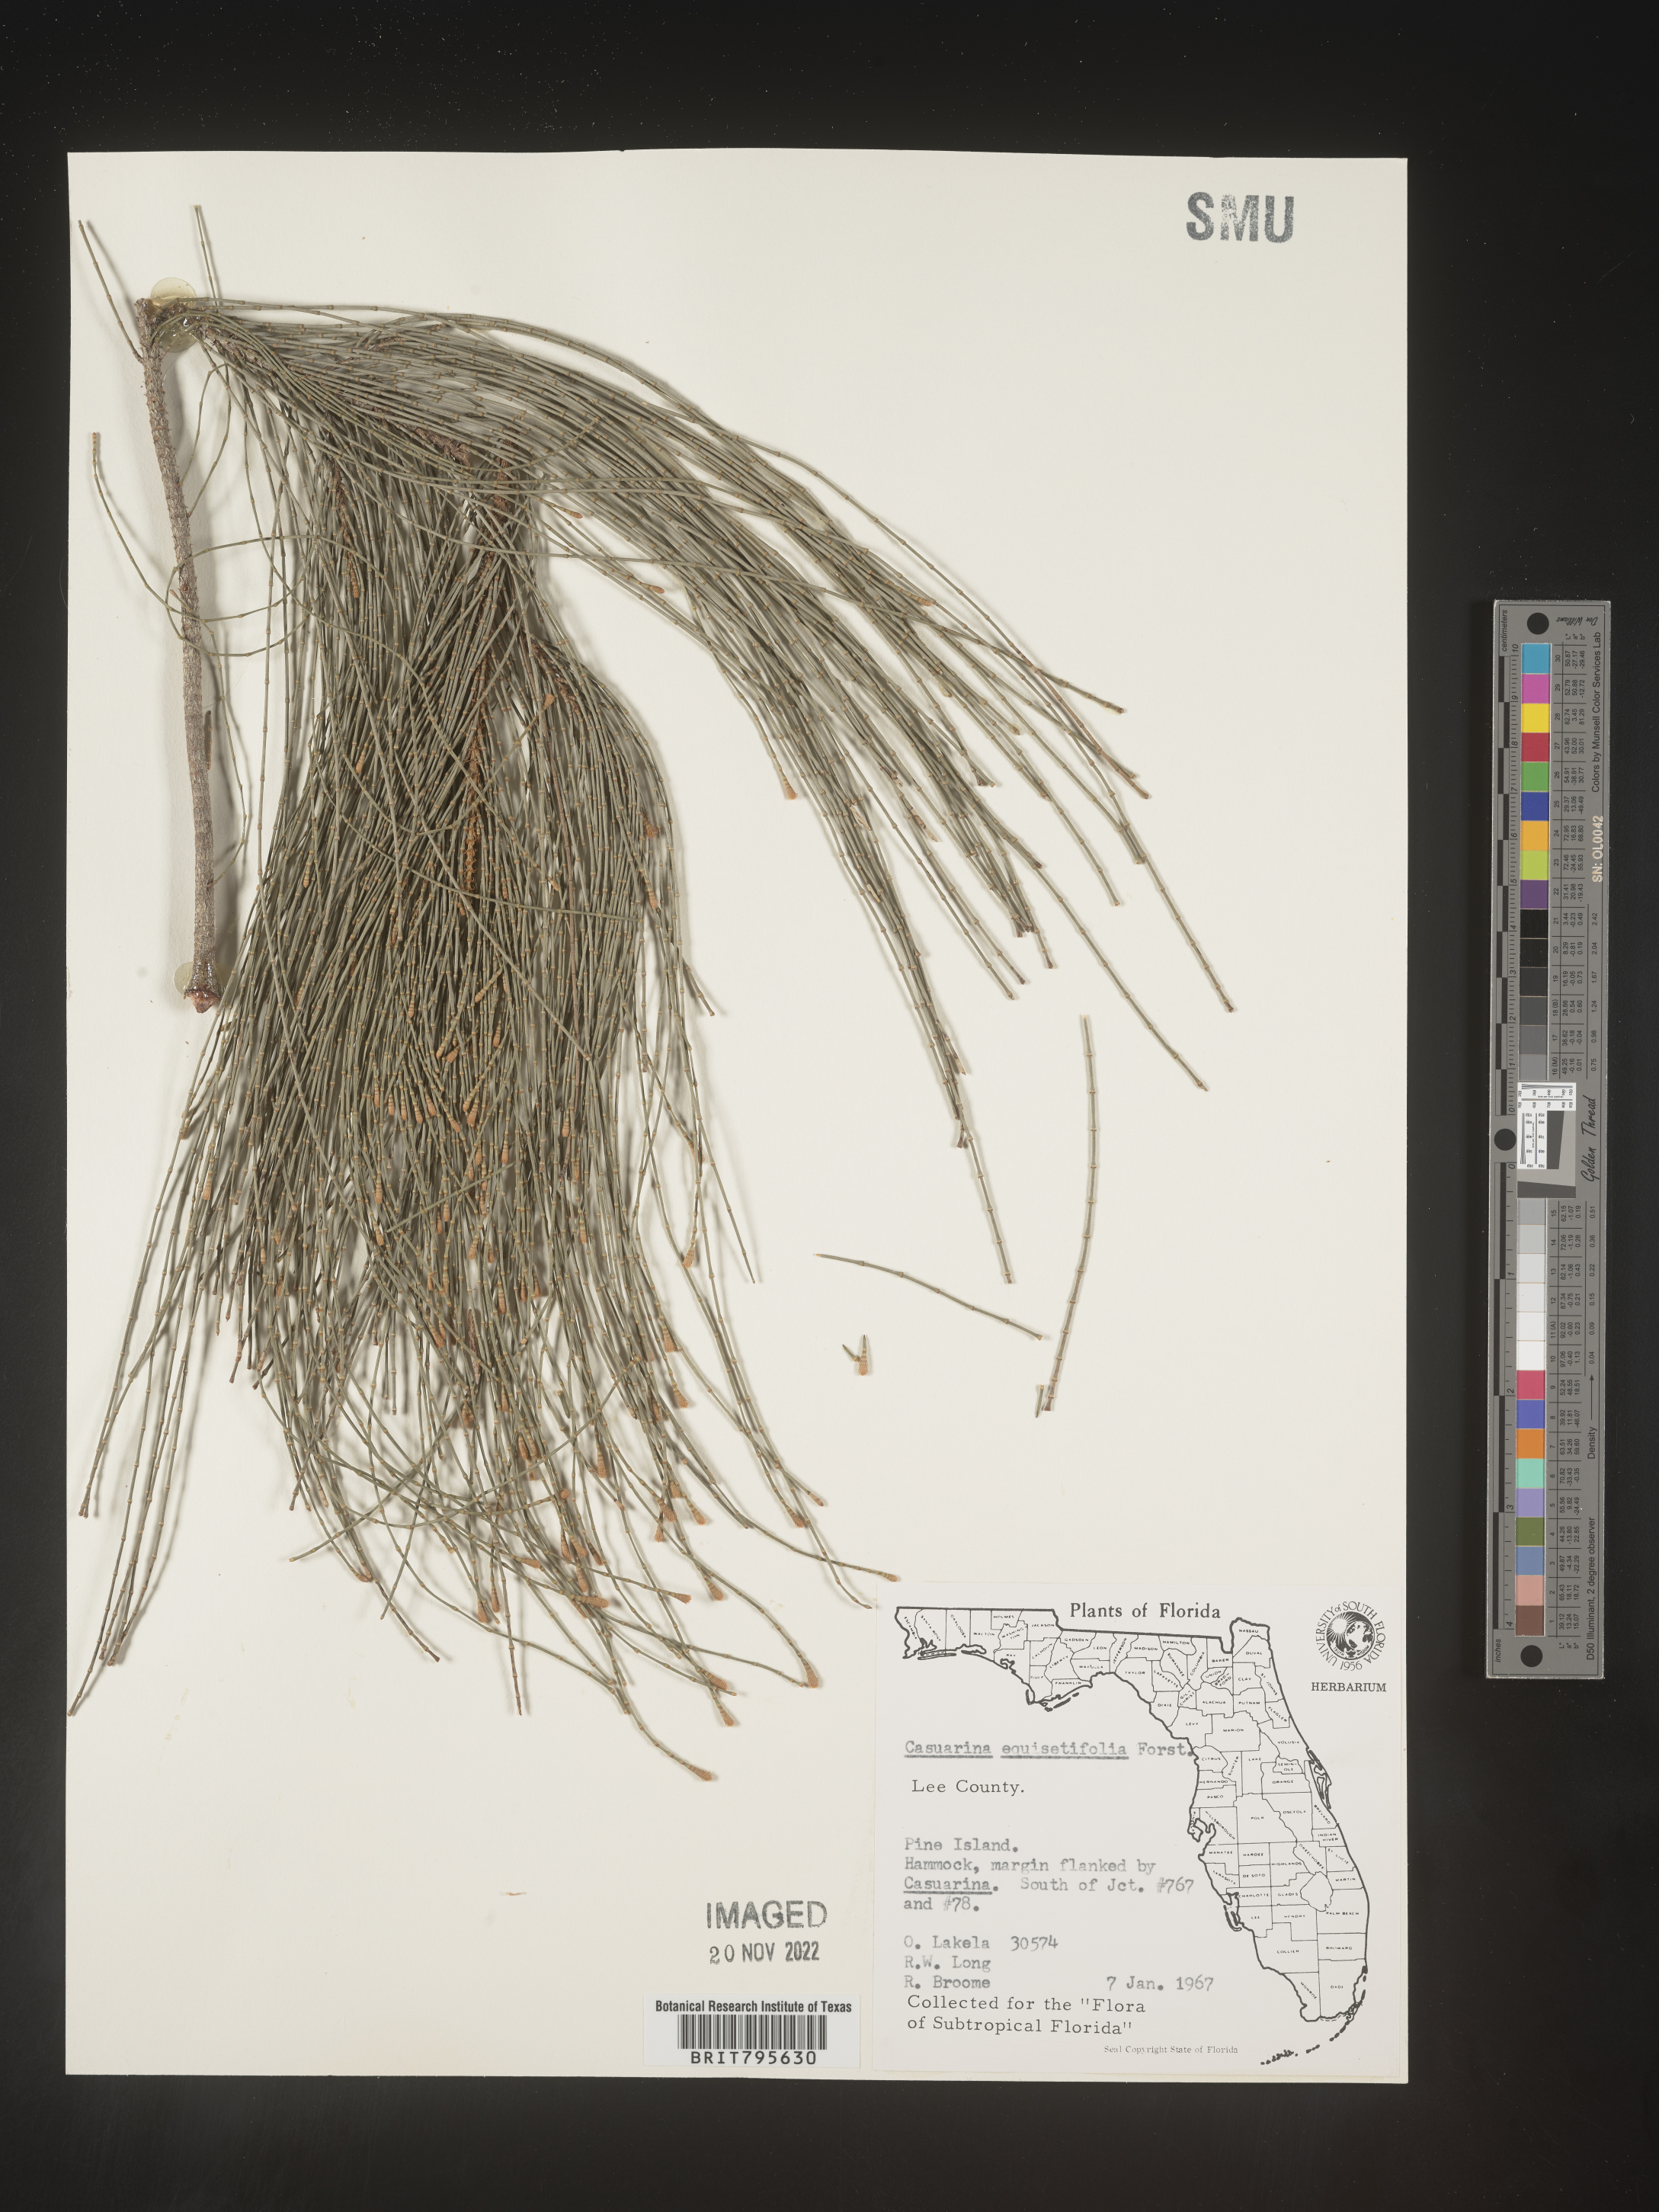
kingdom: Plantae
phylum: Tracheophyta
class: Magnoliopsida
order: Fagales
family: Casuarinaceae
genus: Casuarina
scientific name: Casuarina equisetifolia
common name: Beach sheoak
